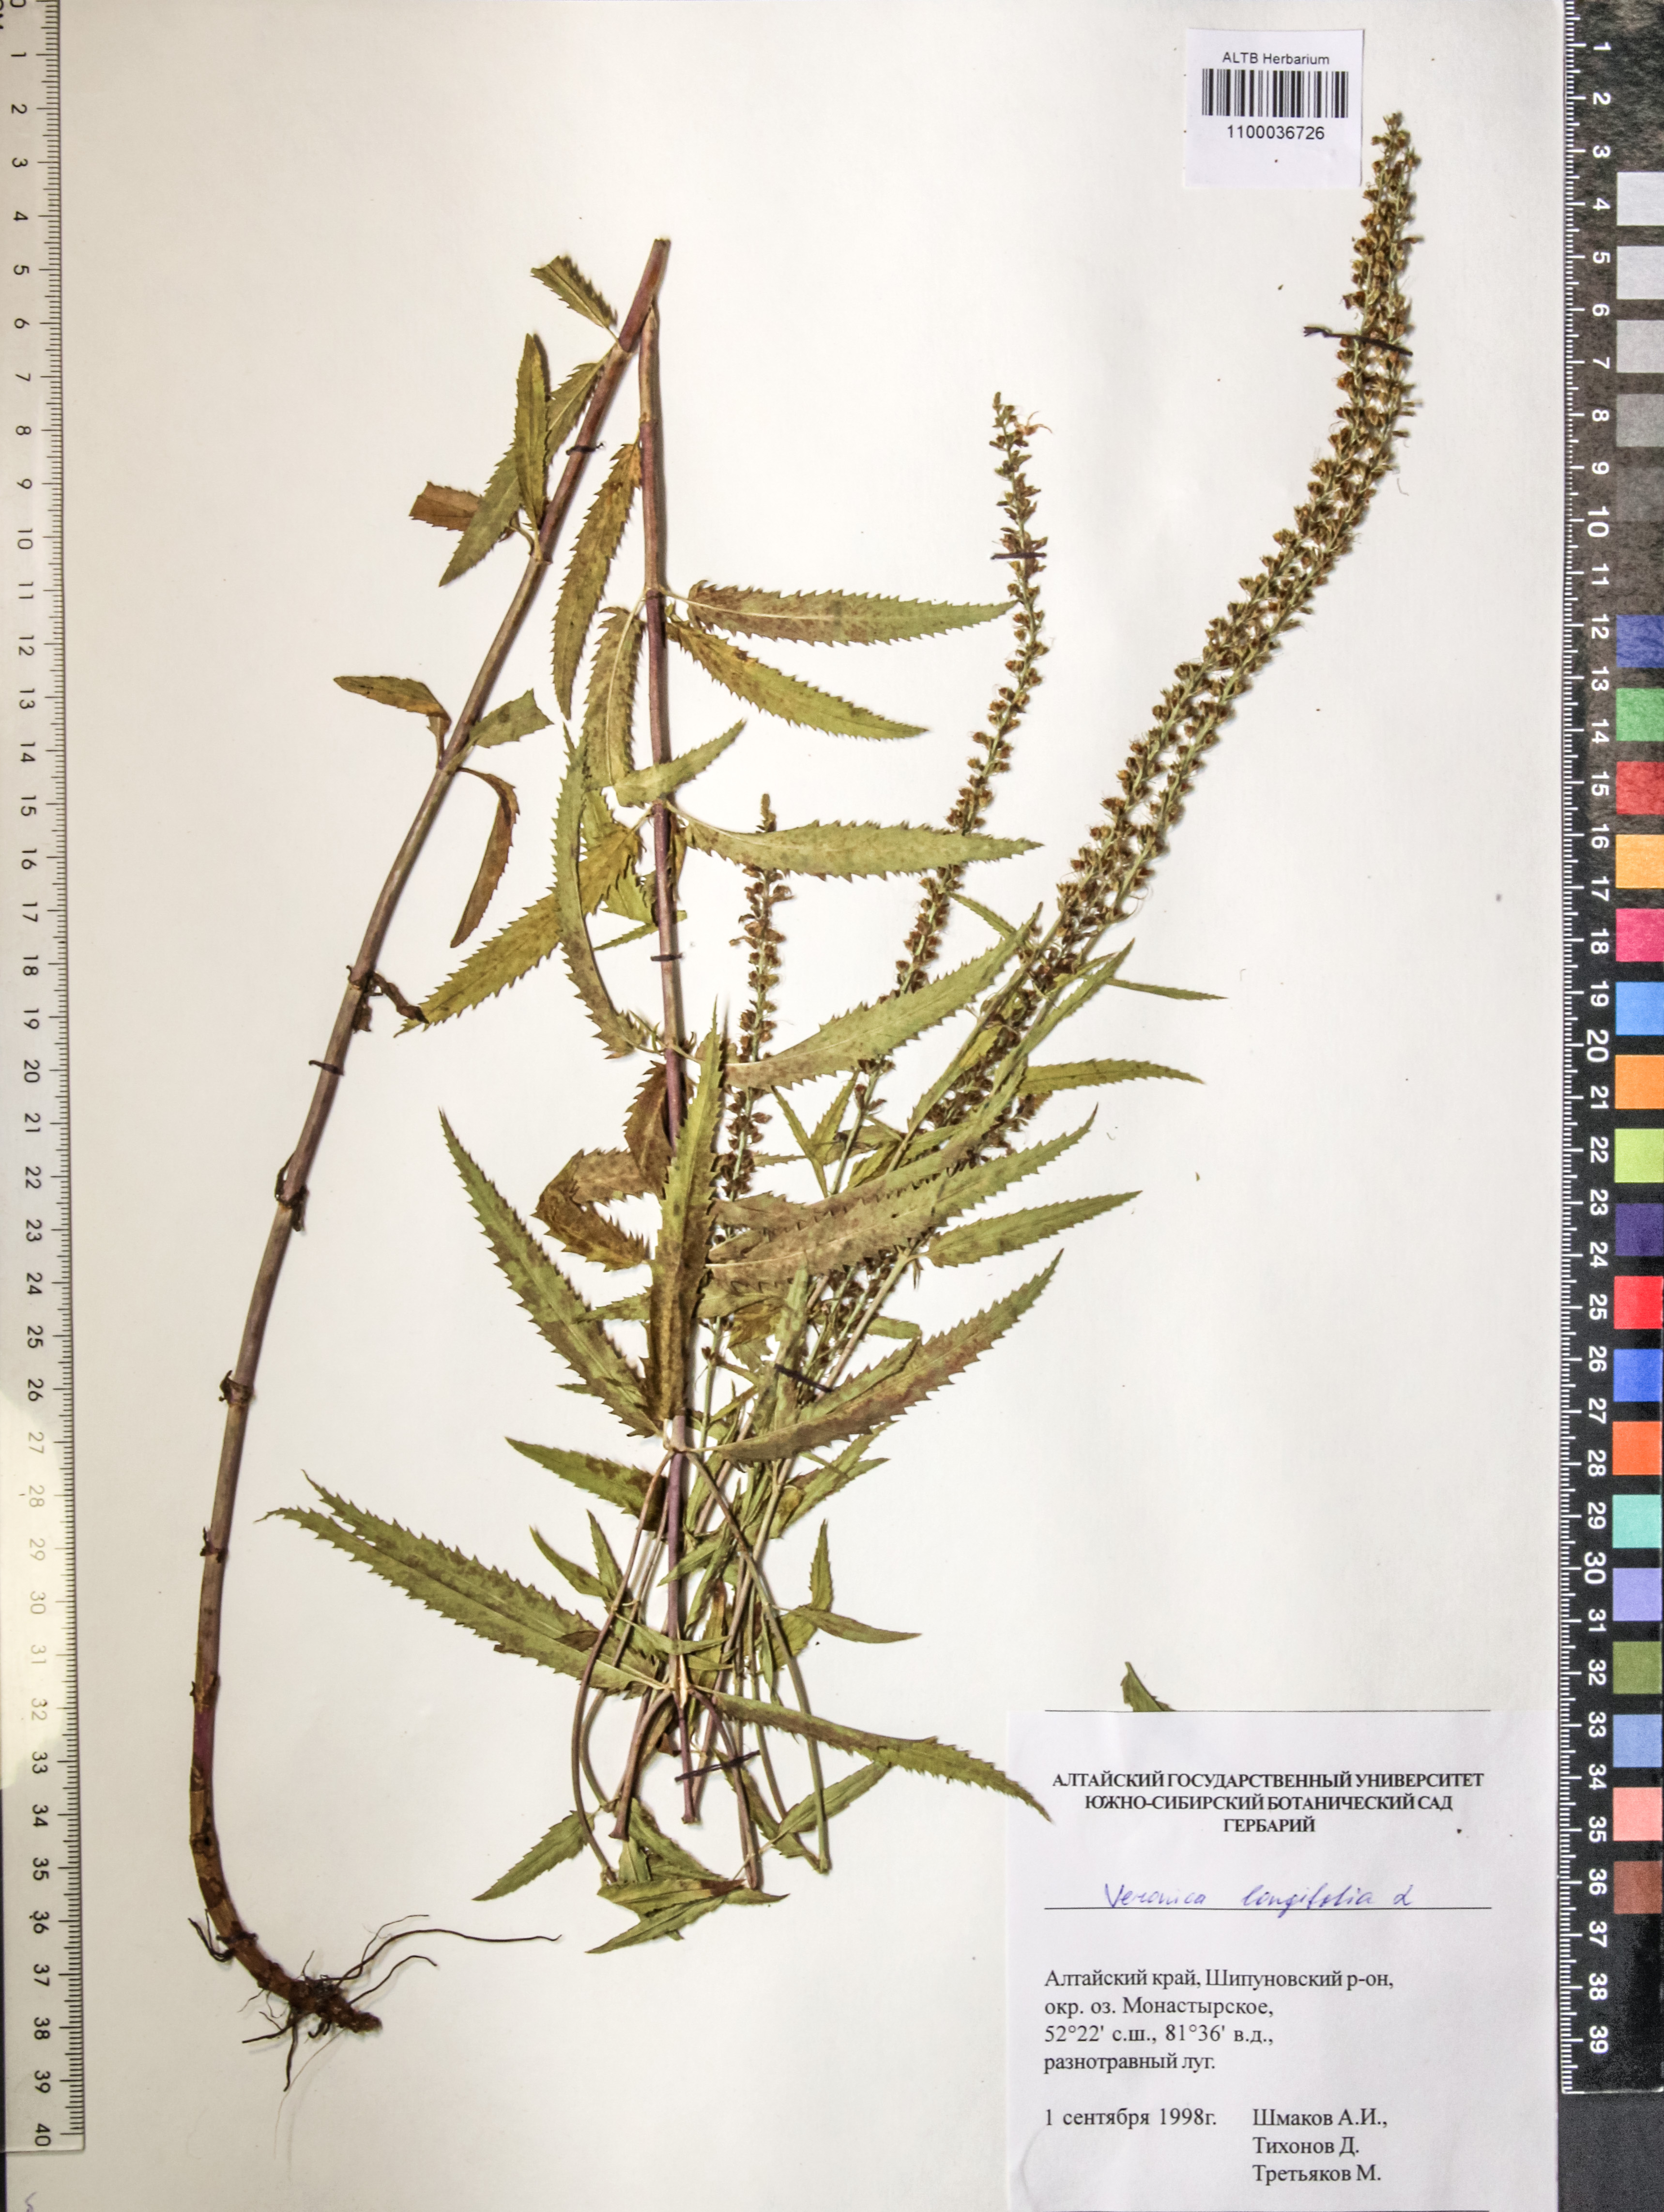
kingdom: Plantae
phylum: Tracheophyta
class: Magnoliopsida
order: Lamiales
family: Plantaginaceae
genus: Veronica
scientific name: Veronica longifolia
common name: Garden speedwell
